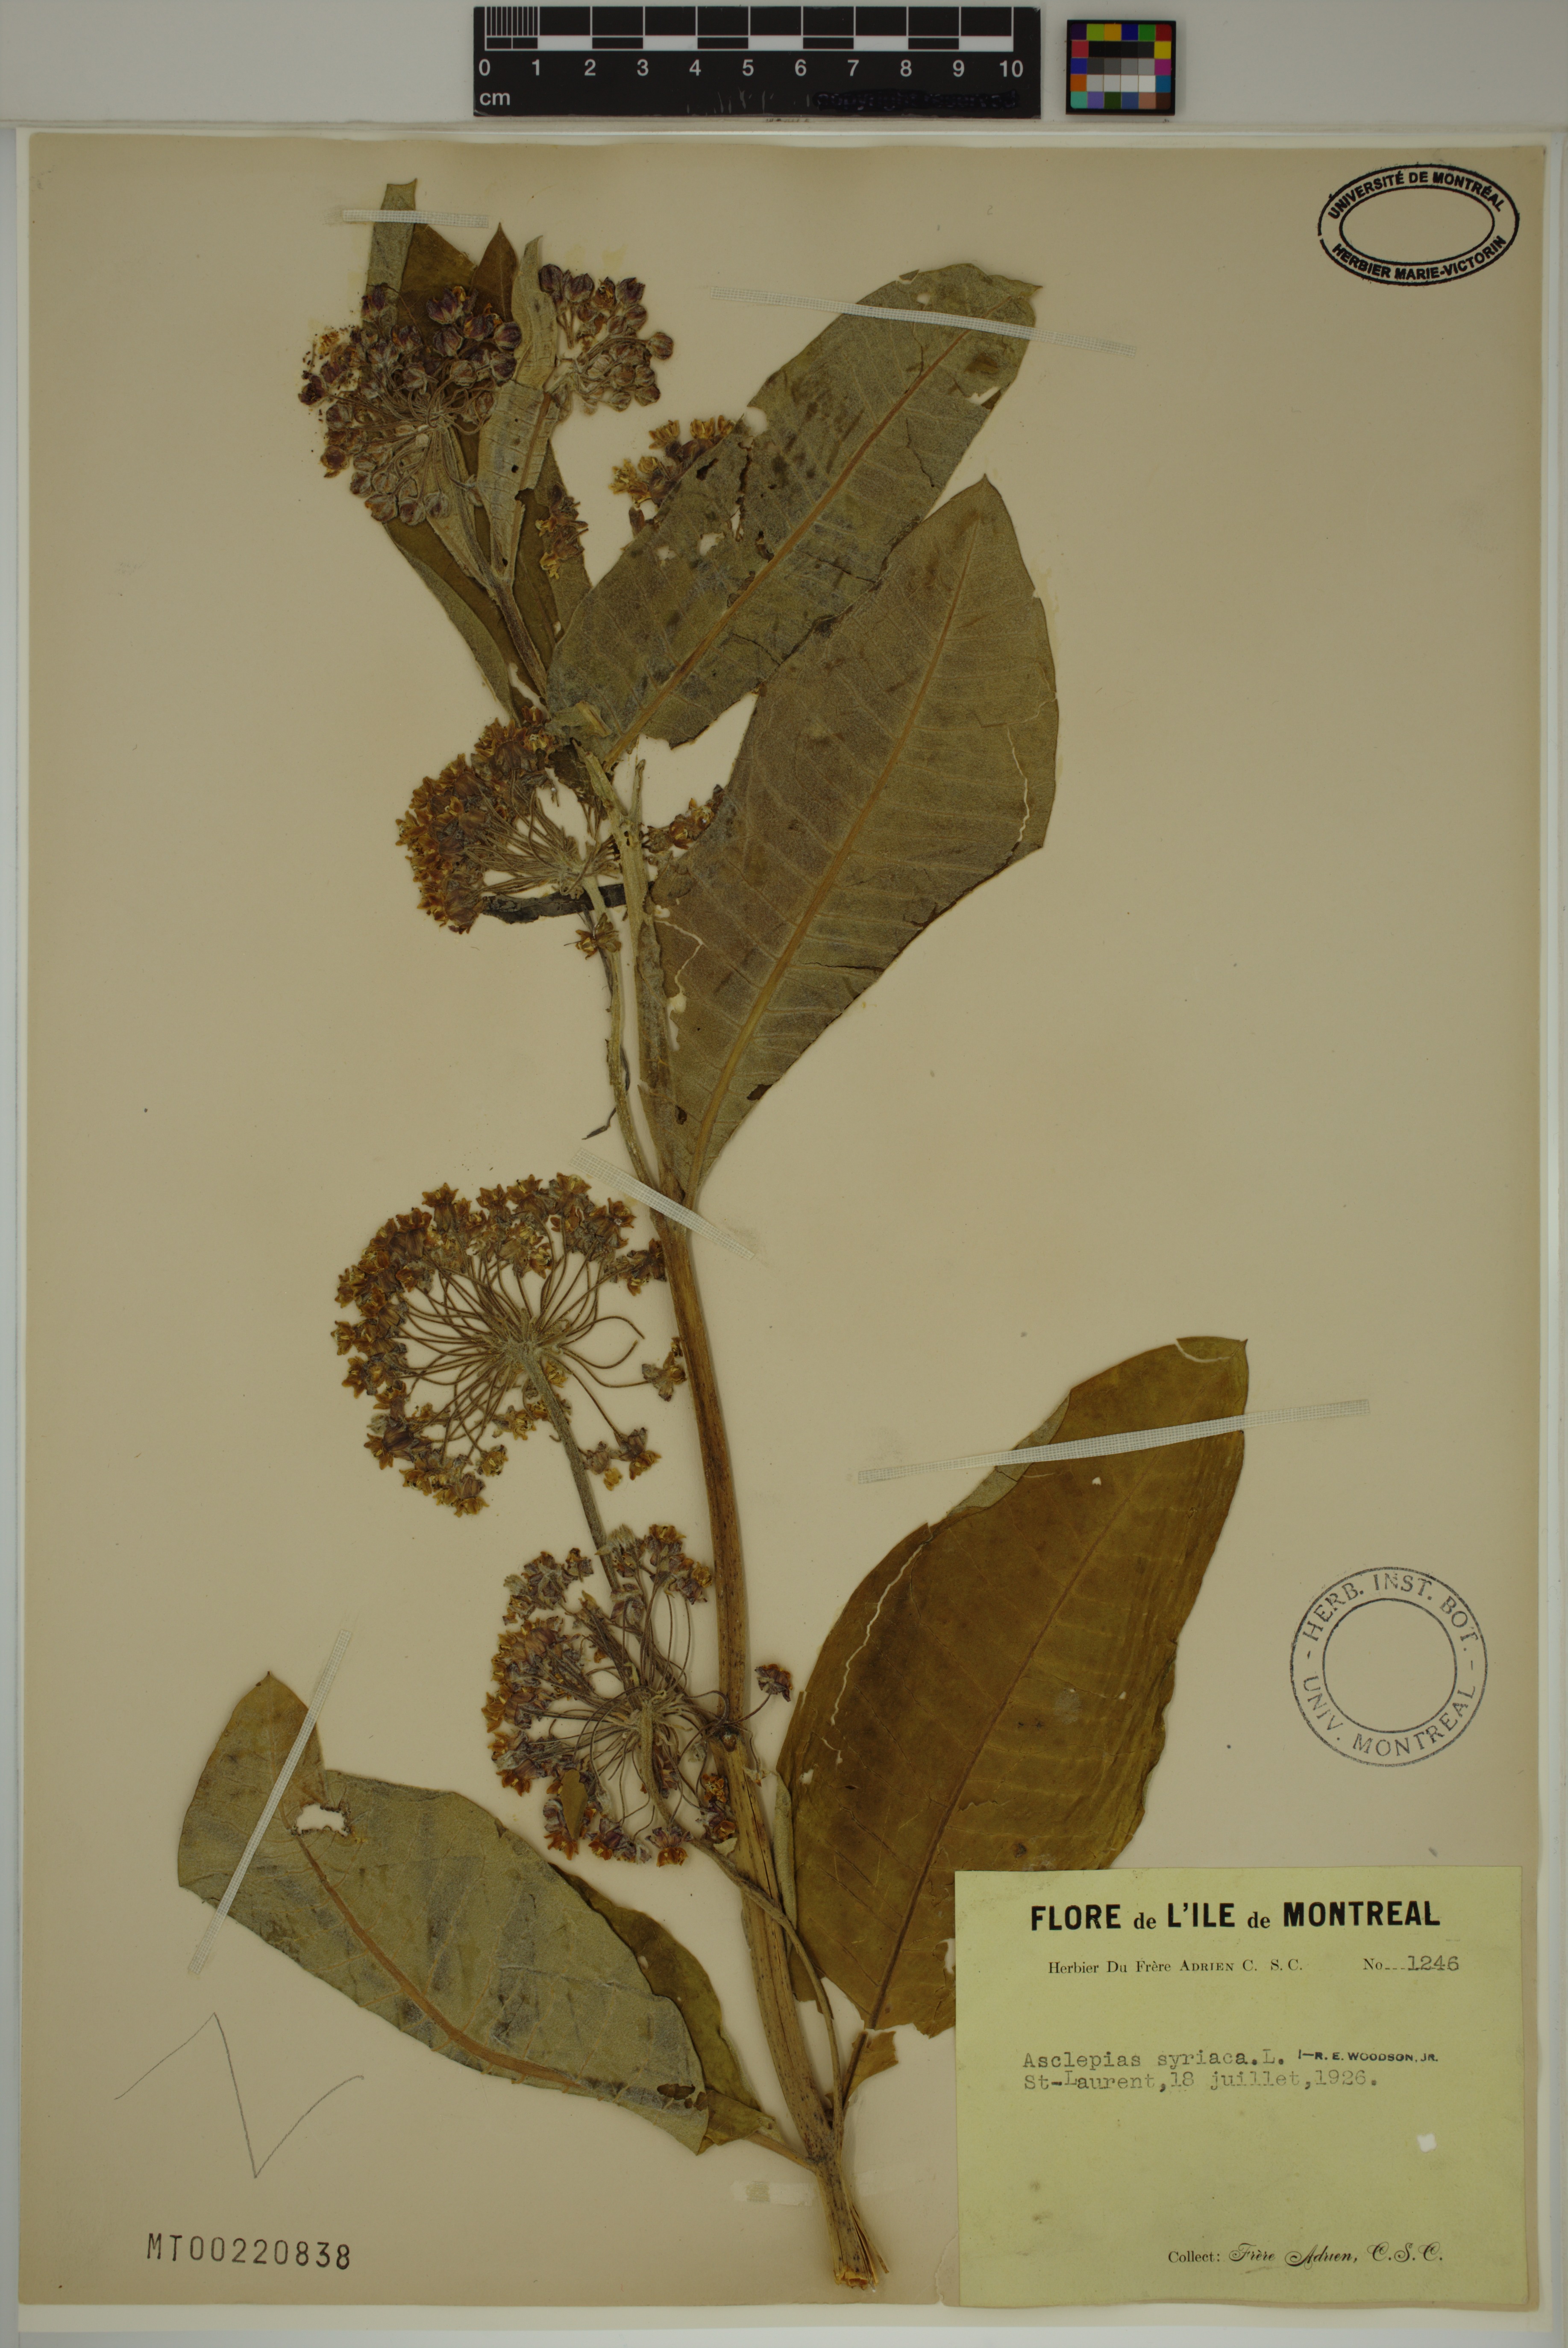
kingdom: Plantae
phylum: Tracheophyta
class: Magnoliopsida
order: Gentianales
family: Apocynaceae
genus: Asclepias
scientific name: Asclepias syriaca
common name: Common milkweed
